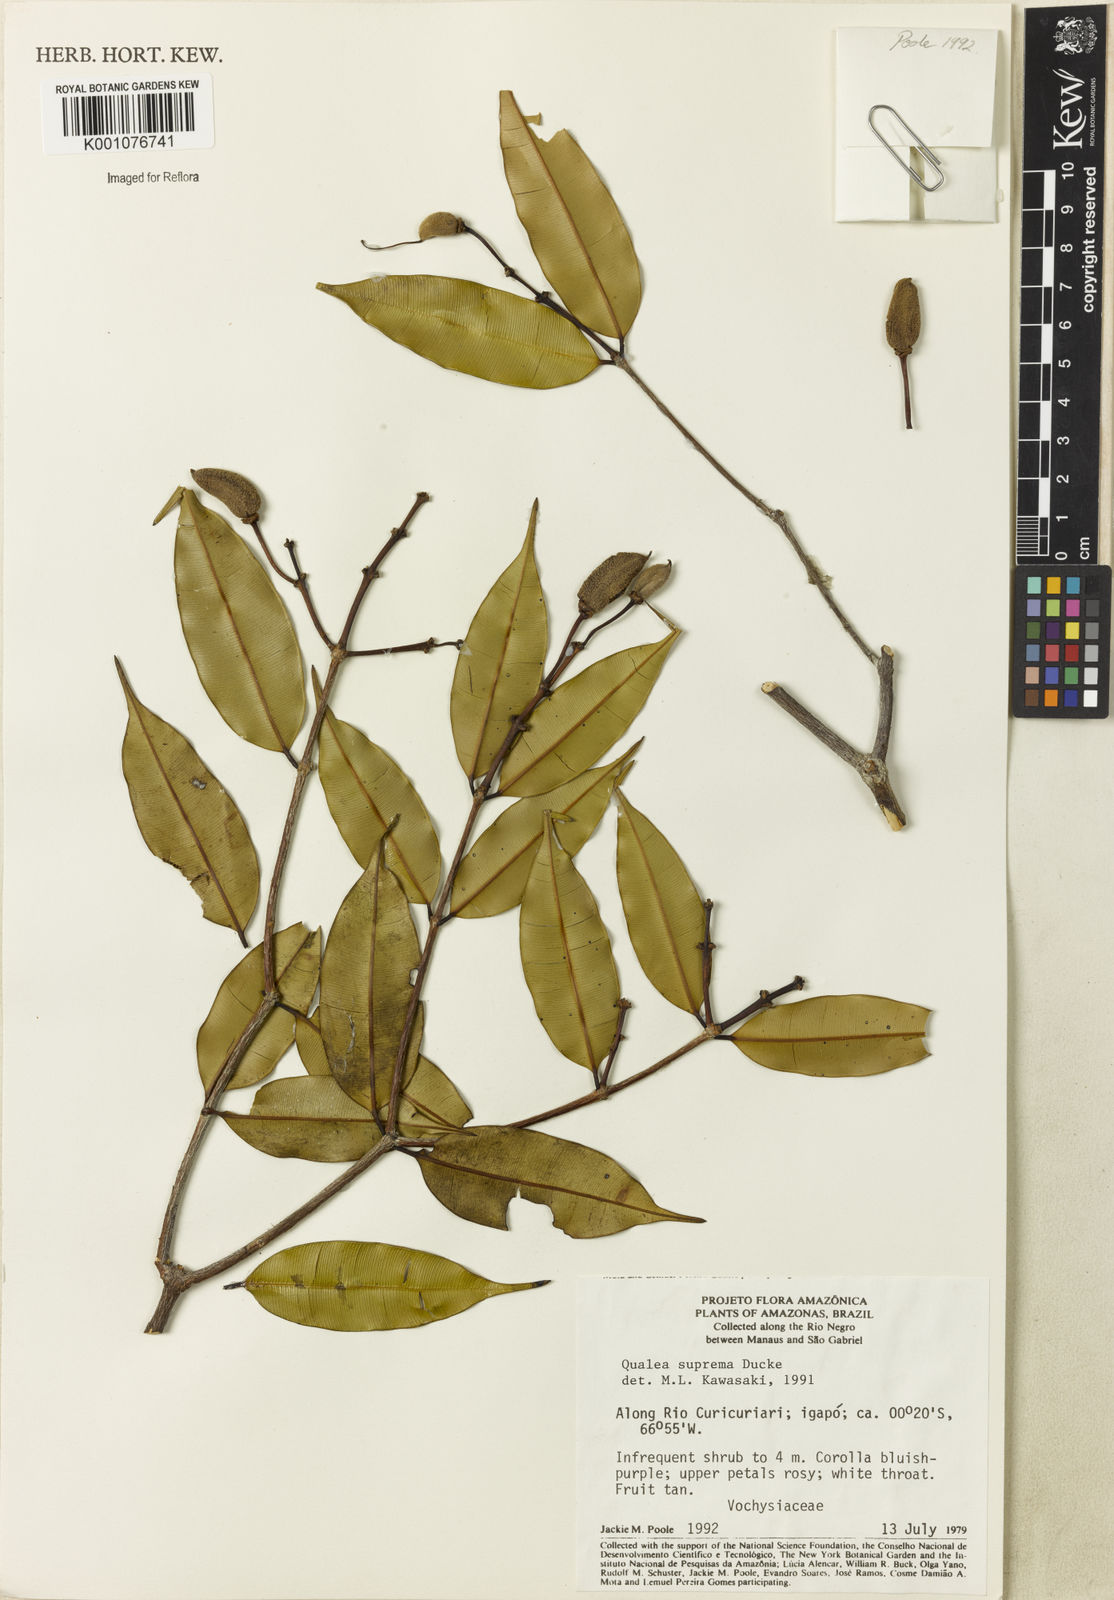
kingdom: Plantae
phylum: Tracheophyta
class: Magnoliopsida
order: Myrtales
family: Vochysiaceae
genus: Qualea
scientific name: Qualea suprema
